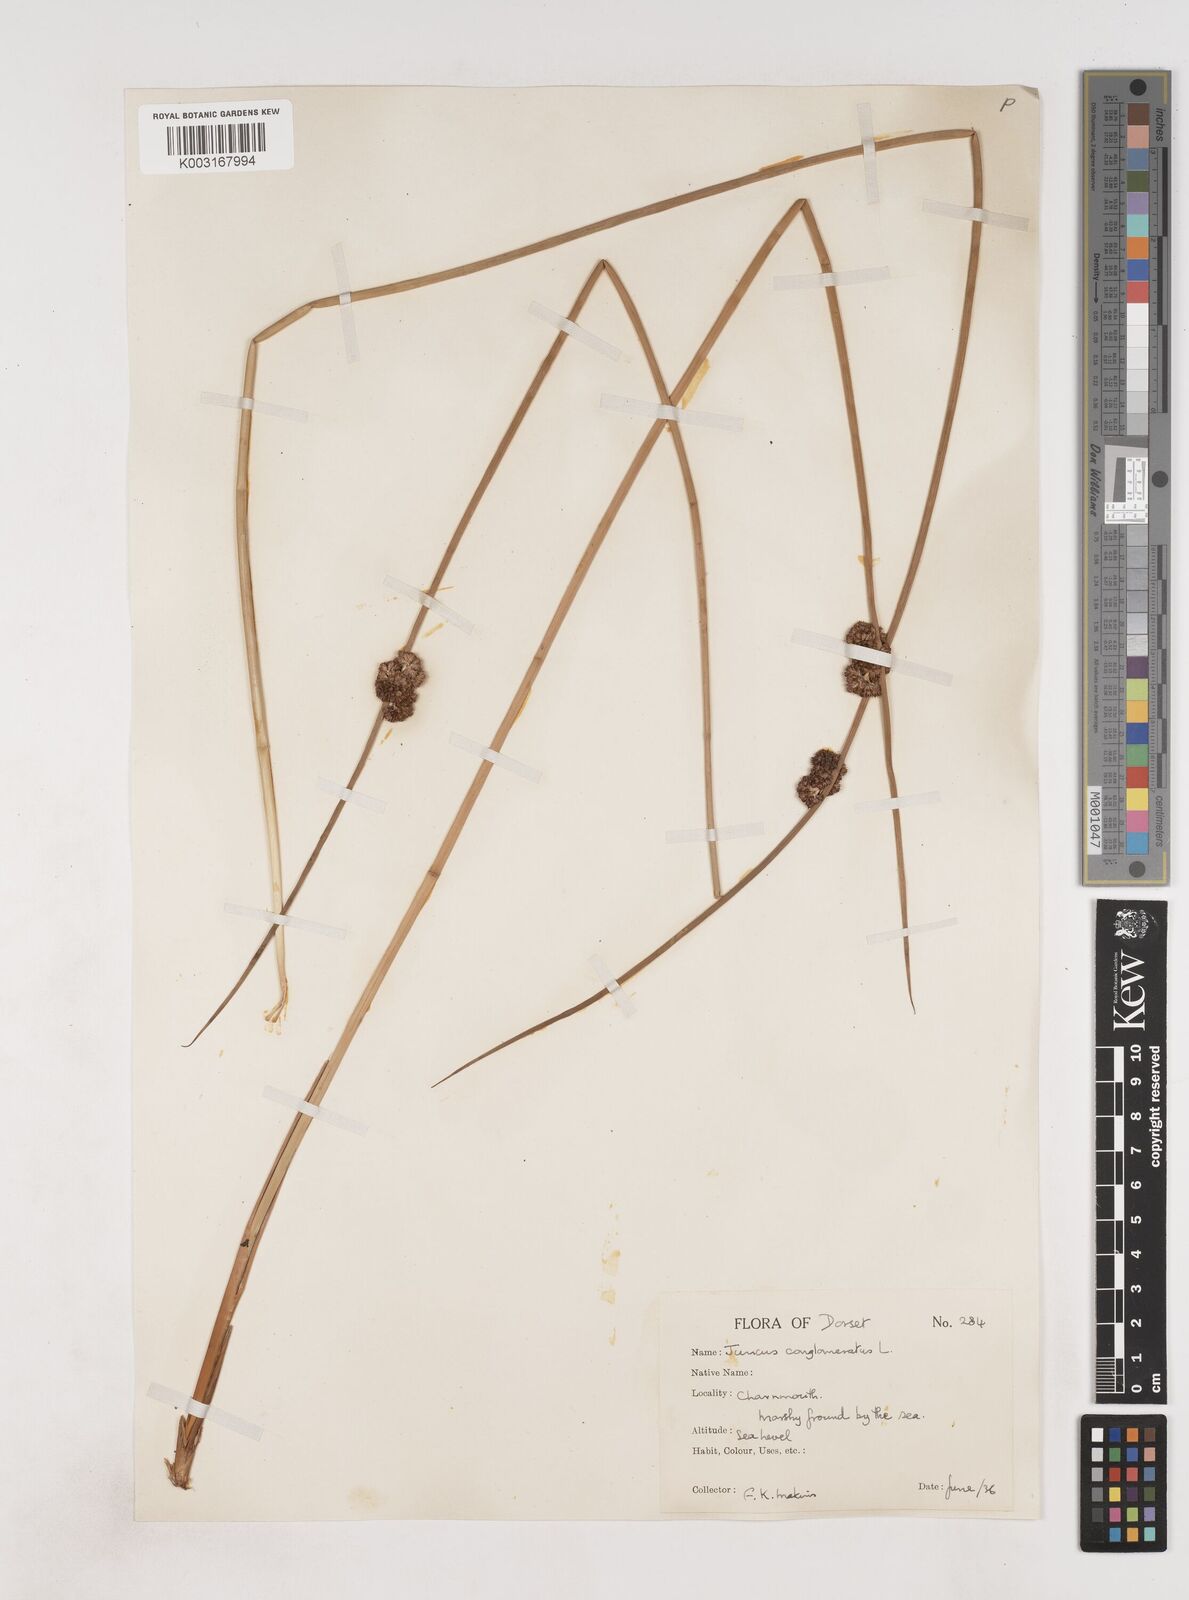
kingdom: Plantae
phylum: Tracheophyta
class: Liliopsida
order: Poales
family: Juncaceae
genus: Juncus
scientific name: Juncus conglomeratus
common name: Compact rush
